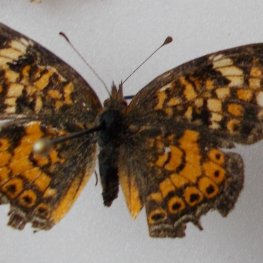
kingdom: Animalia
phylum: Arthropoda
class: Insecta
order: Lepidoptera
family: Nymphalidae
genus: Phyciodes
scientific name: Phyciodes tharos
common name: Northern Crescent
